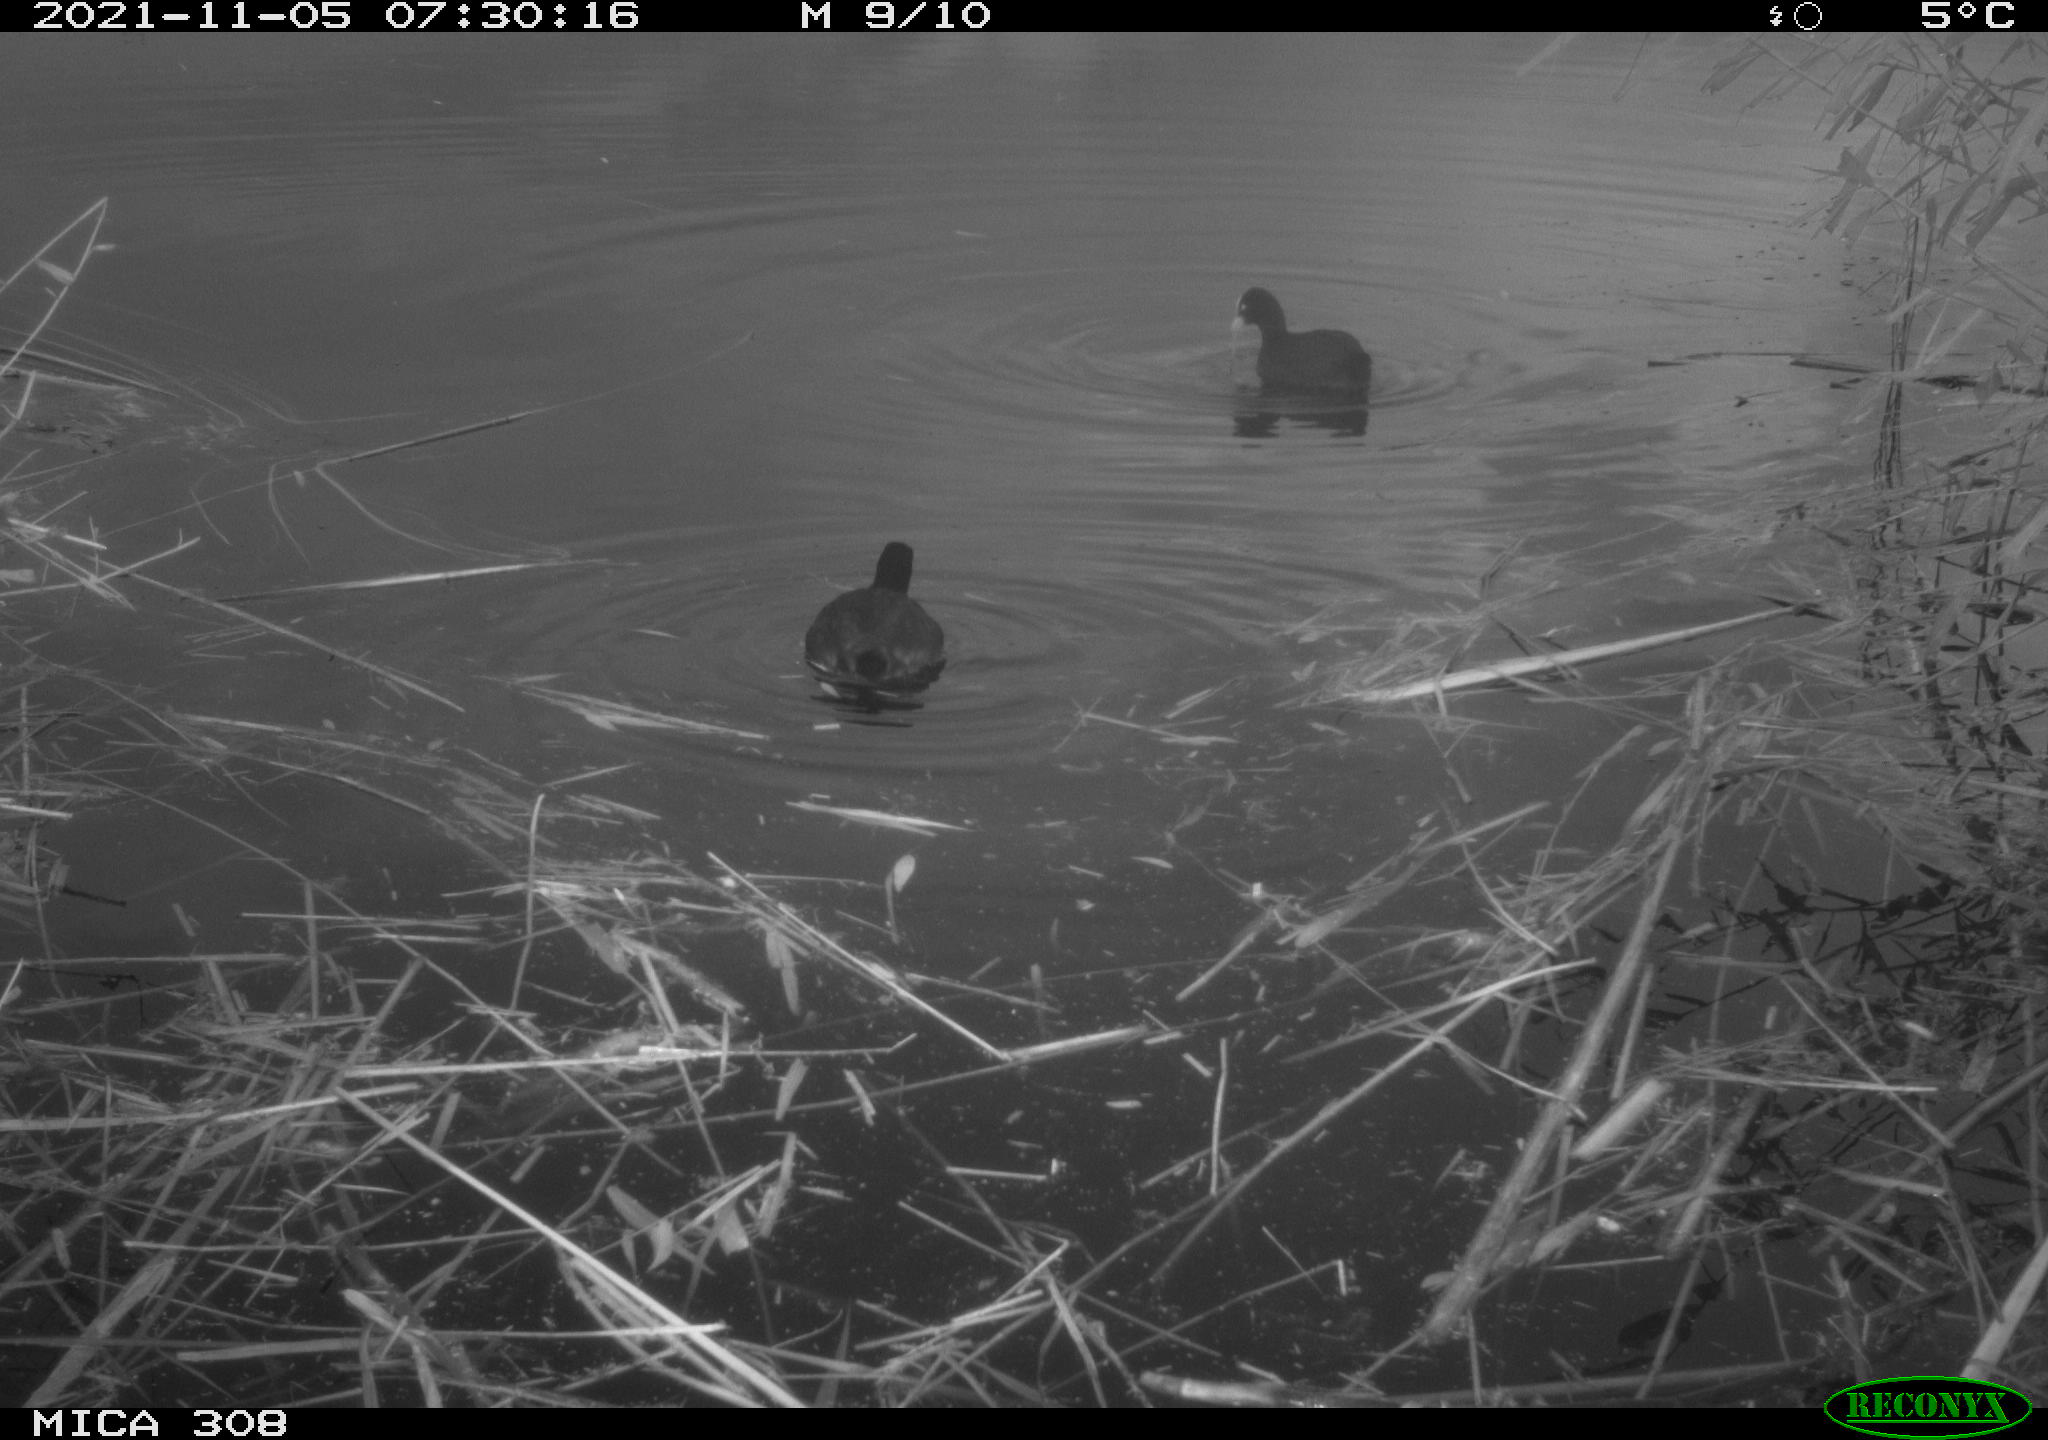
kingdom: Animalia
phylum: Chordata
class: Aves
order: Gruiformes
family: Rallidae
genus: Fulica
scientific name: Fulica atra
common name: Eurasian coot
